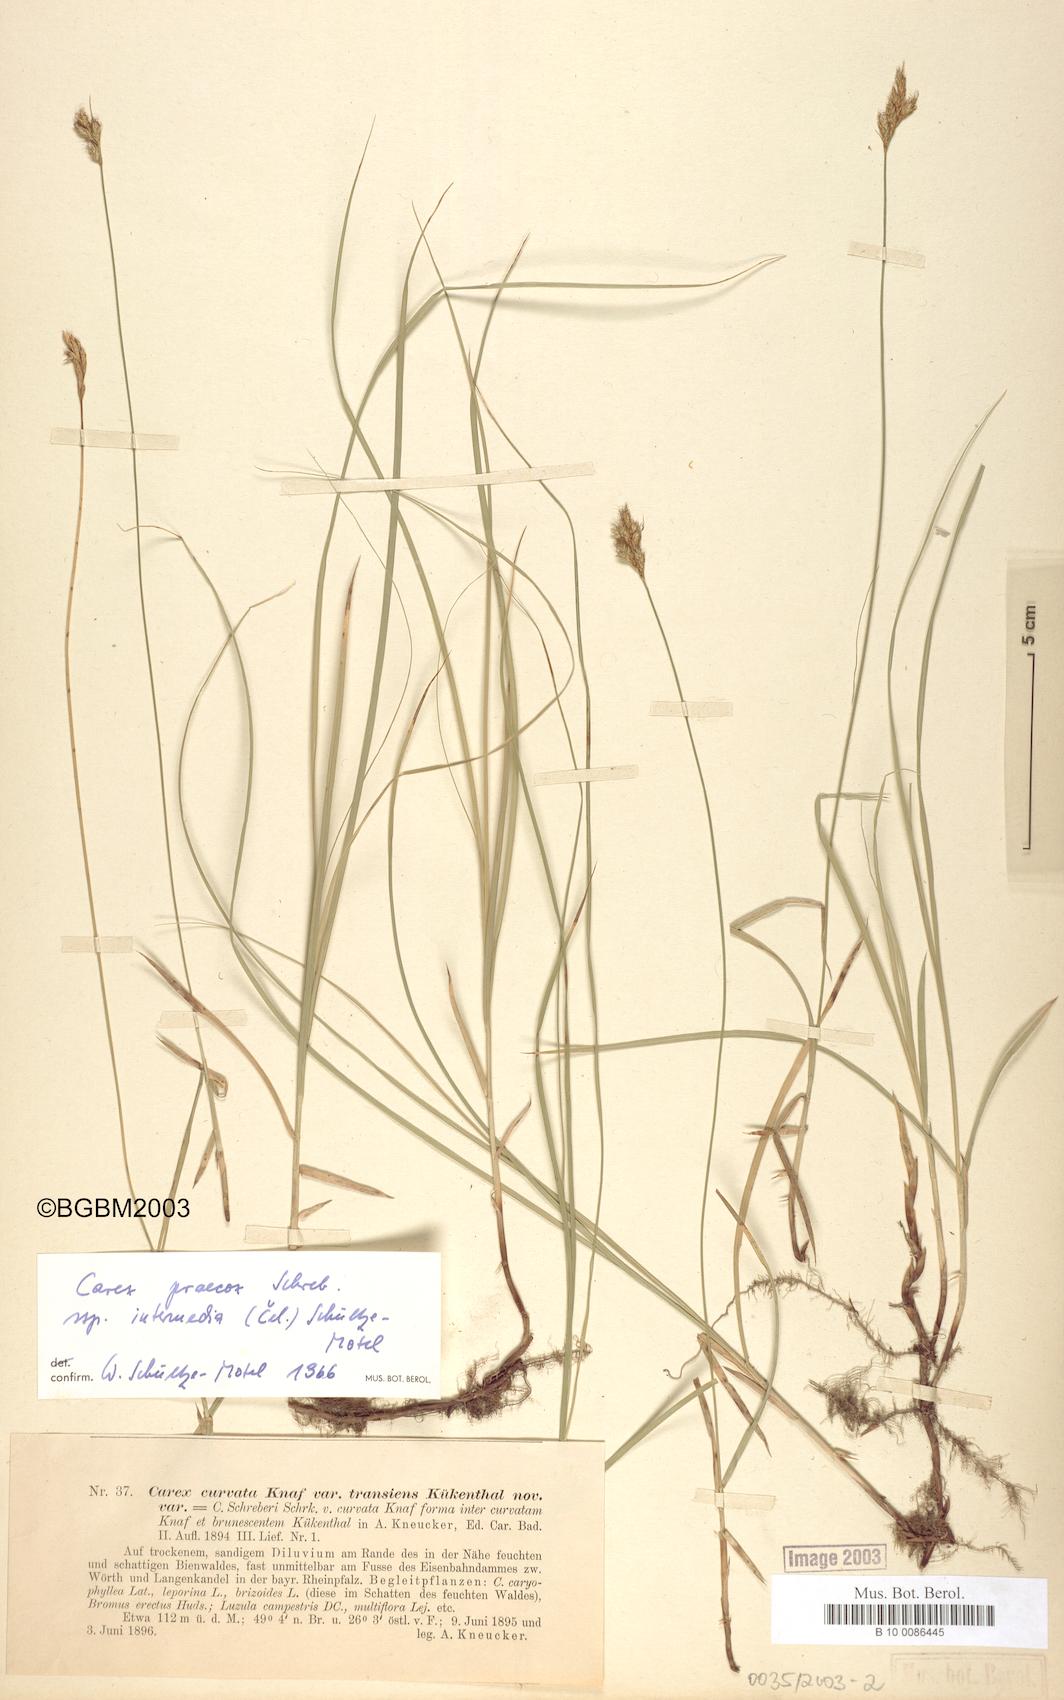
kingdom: Plantae
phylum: Tracheophyta
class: Liliopsida
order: Poales
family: Cyperaceae
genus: Carex
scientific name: Carex curvata
